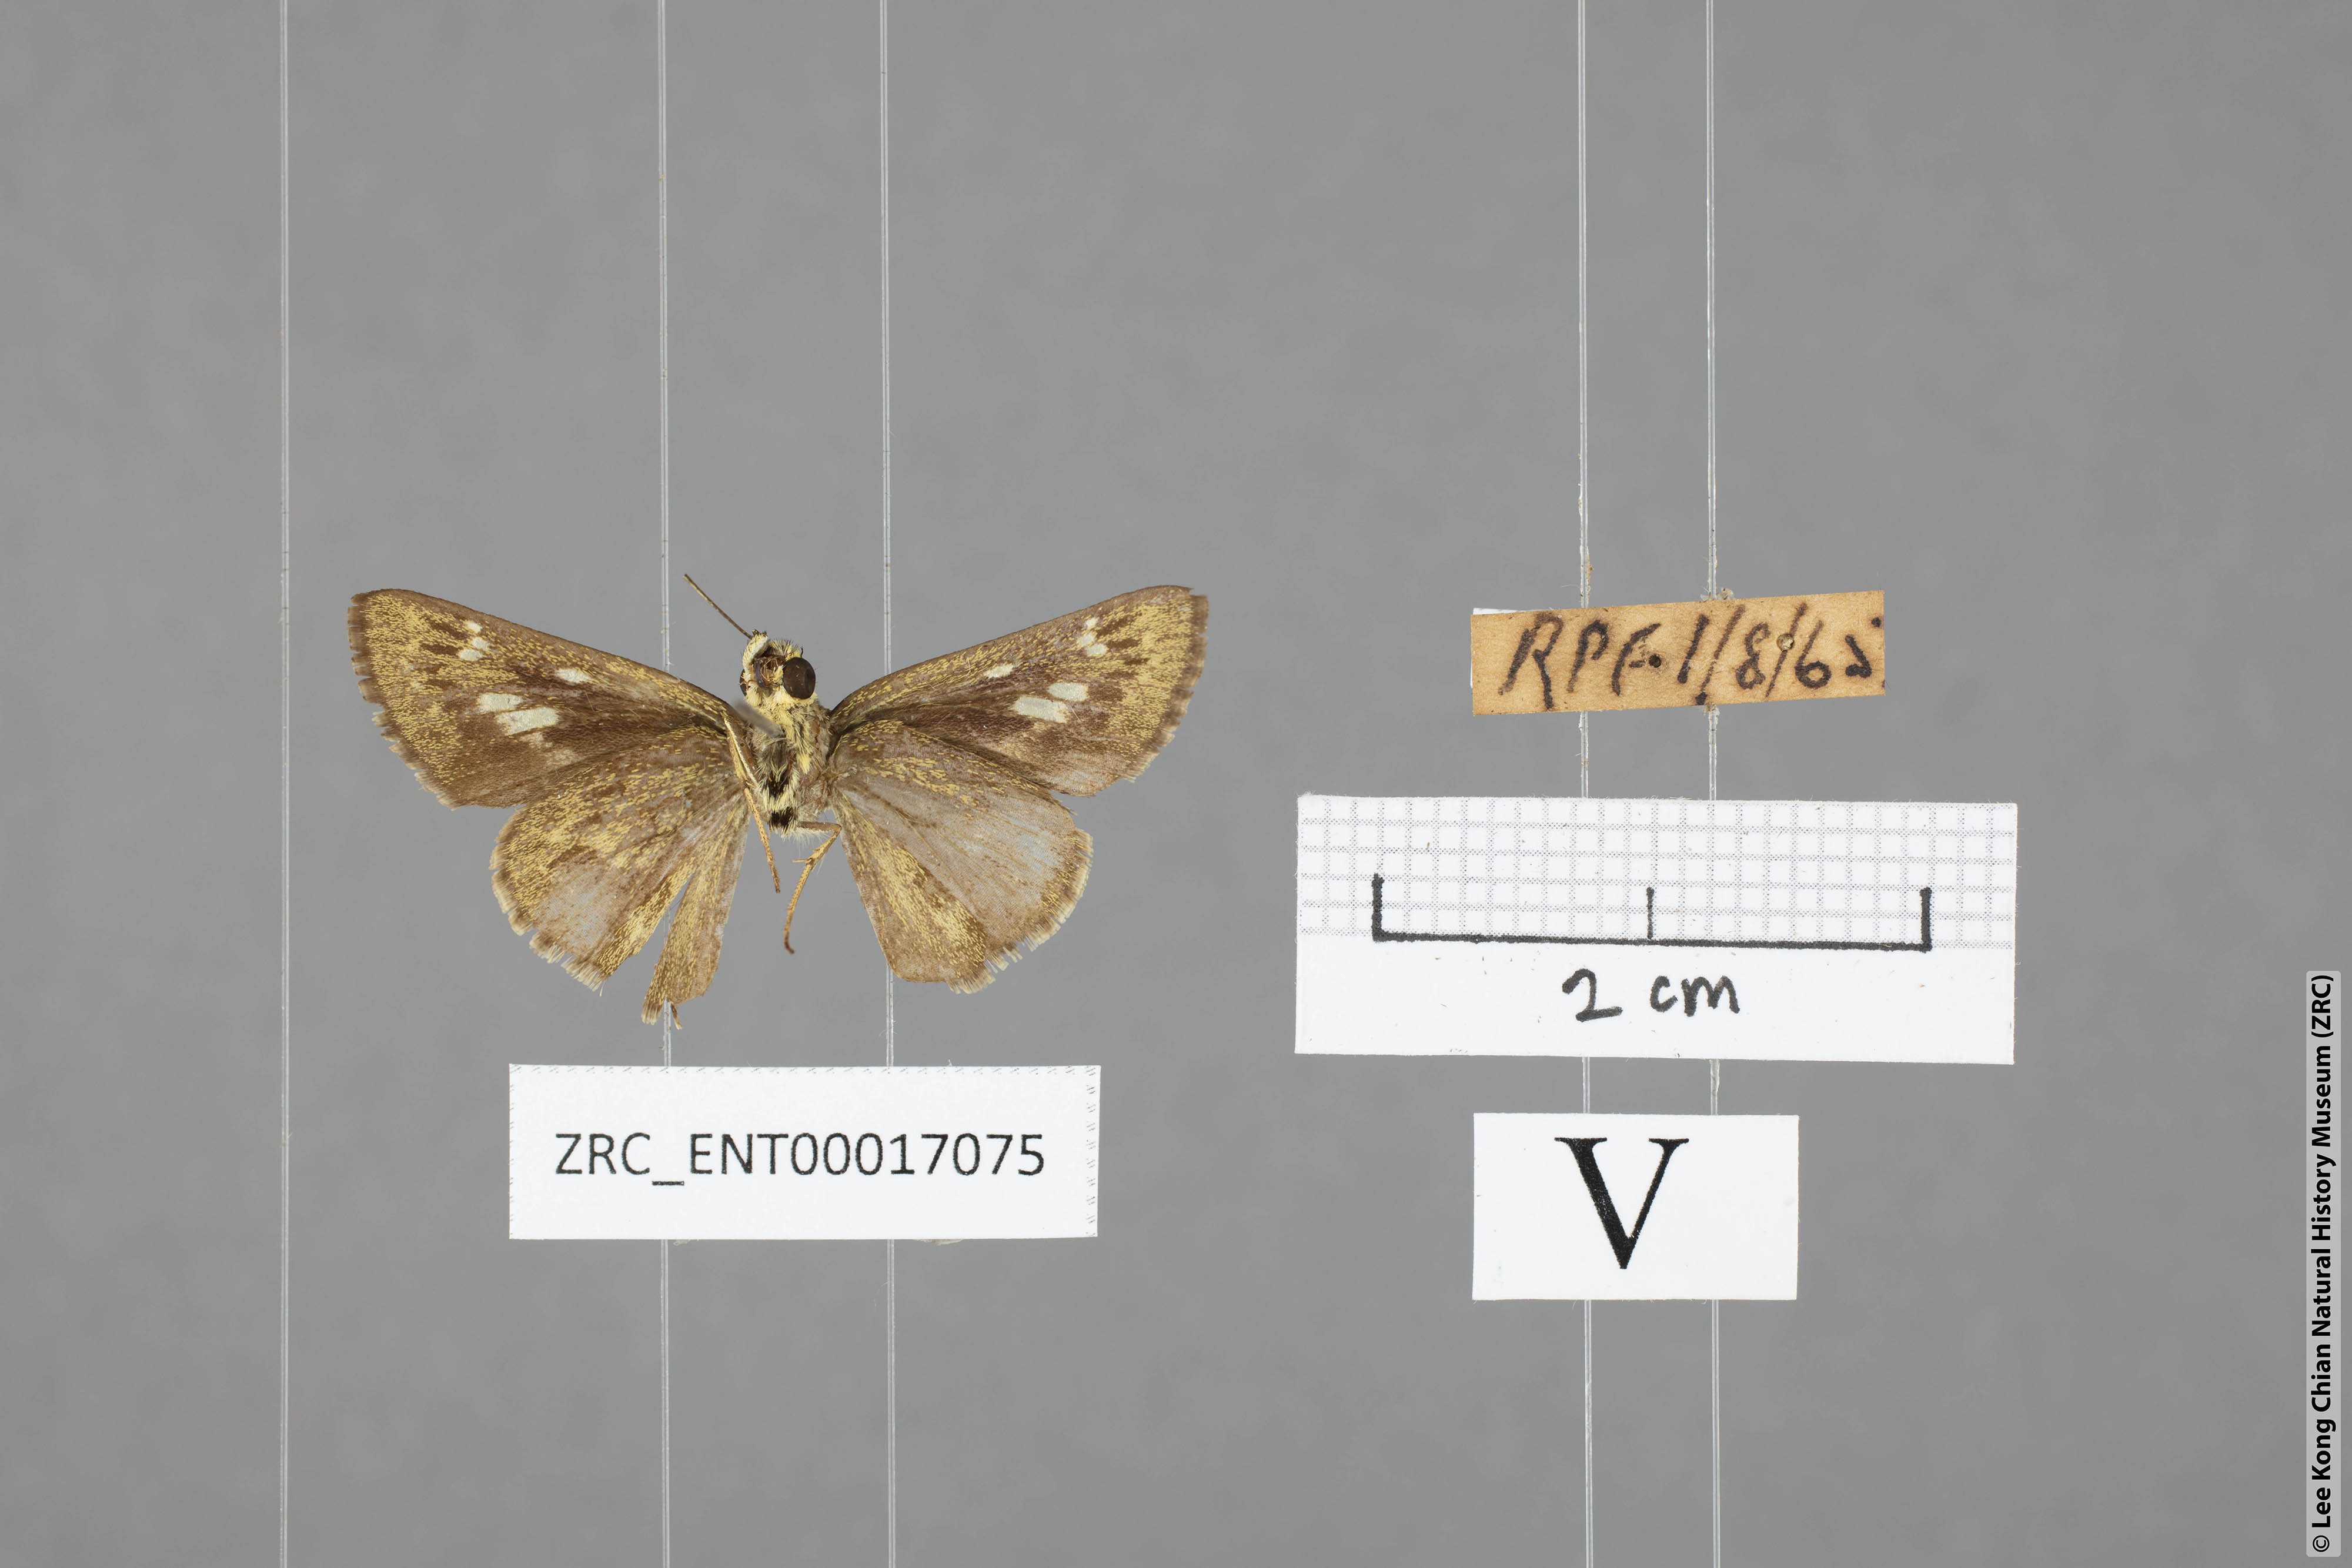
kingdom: Animalia
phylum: Arthropoda
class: Insecta
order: Lepidoptera
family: Hesperiidae
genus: Halpe
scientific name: Halpe veluvana
